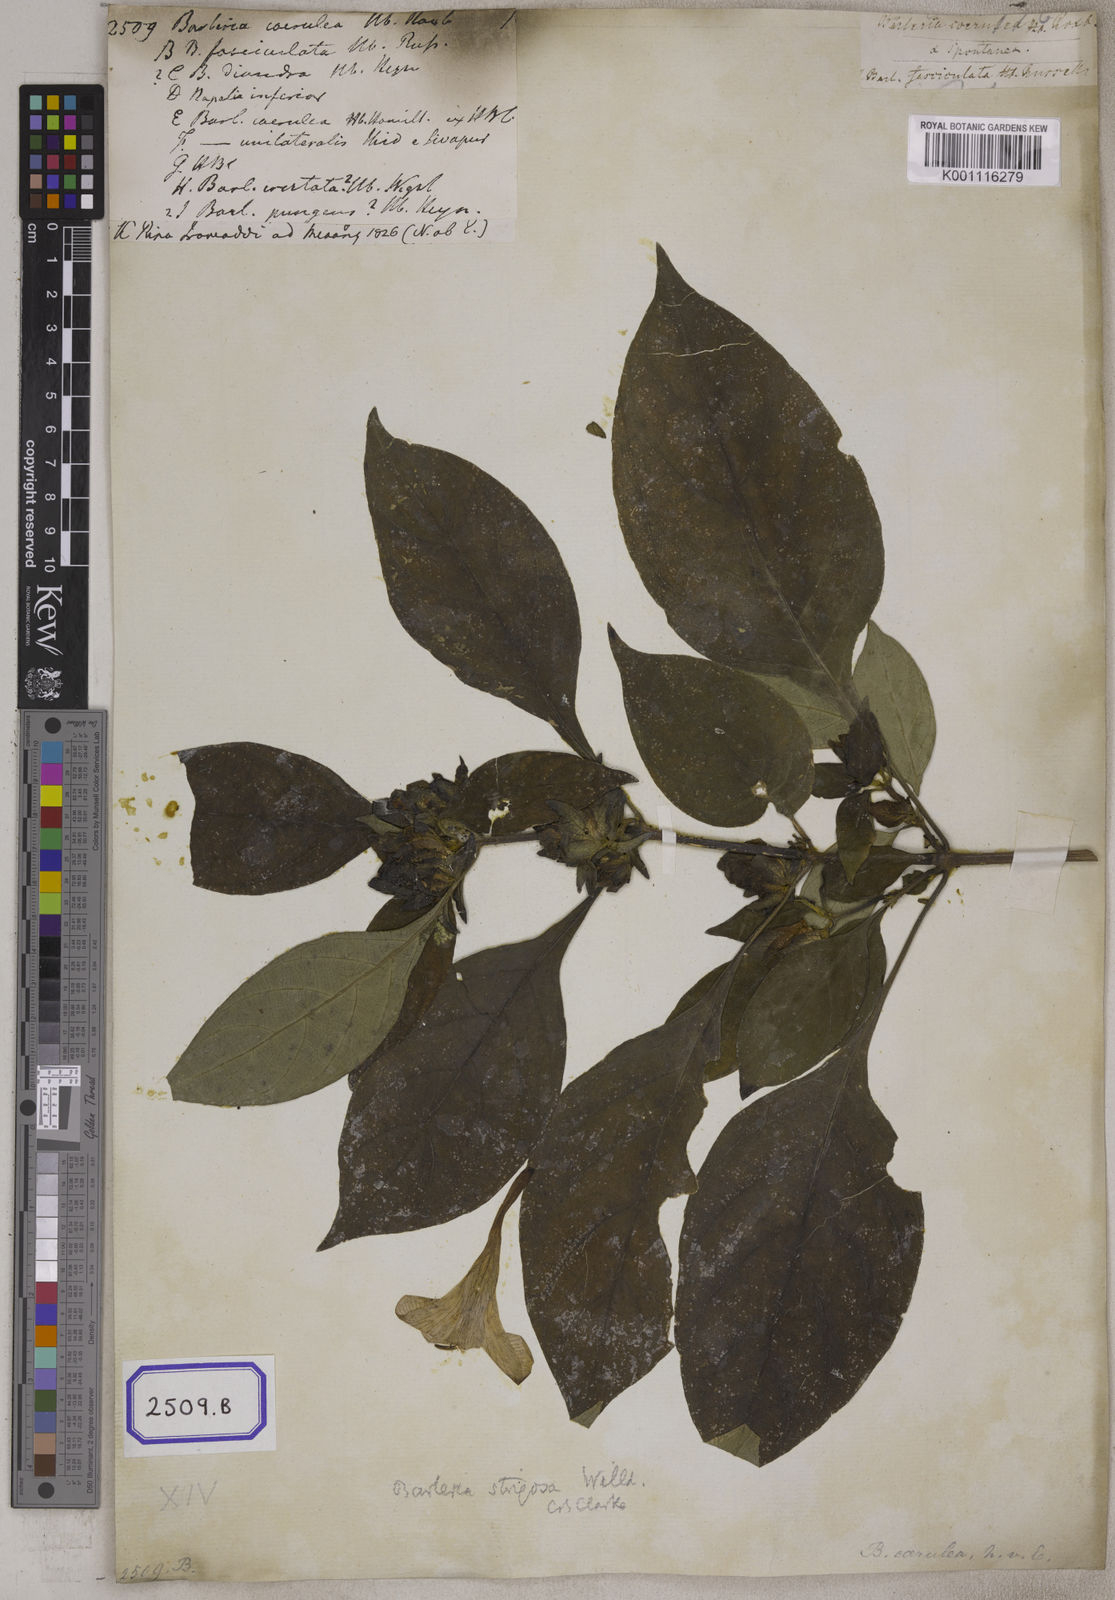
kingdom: Plantae
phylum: Tracheophyta
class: Magnoliopsida
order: Lamiales
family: Acanthaceae
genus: Barleria
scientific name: Barleria strigosa
